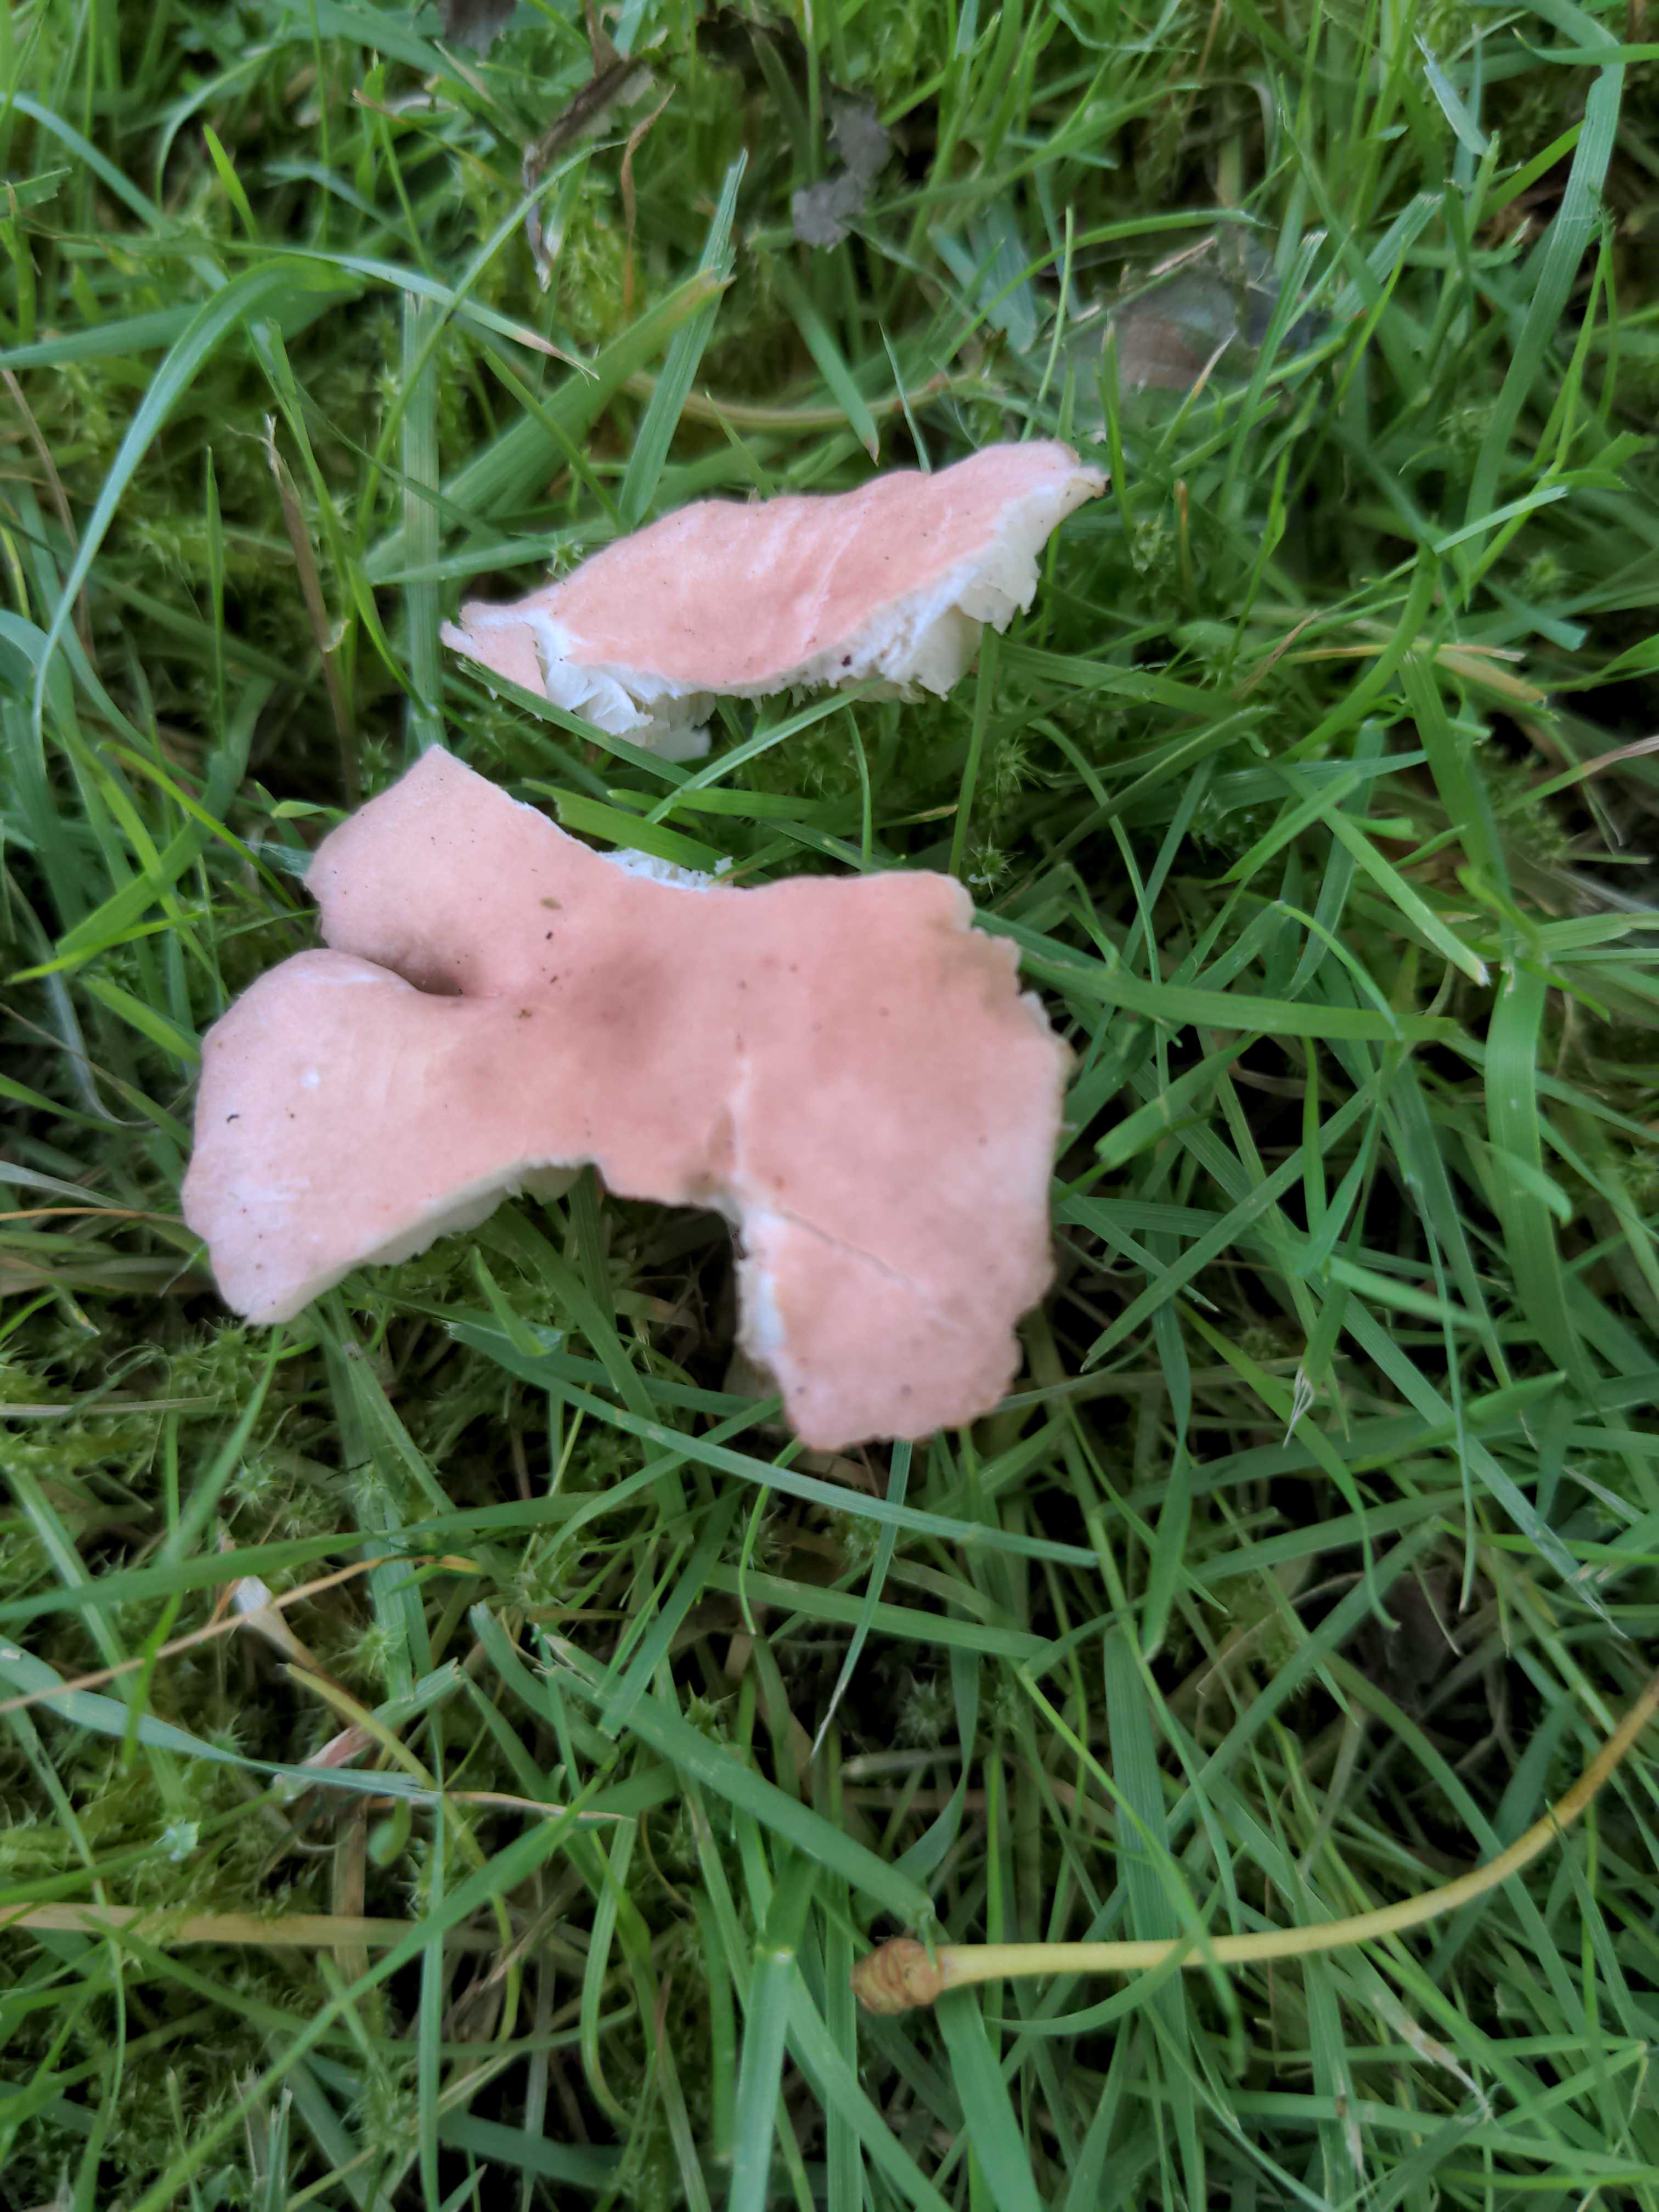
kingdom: Fungi
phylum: Basidiomycota
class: Agaricomycetes
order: Agaricales
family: Lyophyllaceae
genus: Calocybe
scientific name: Calocybe carnea
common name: rosa fagerhat
